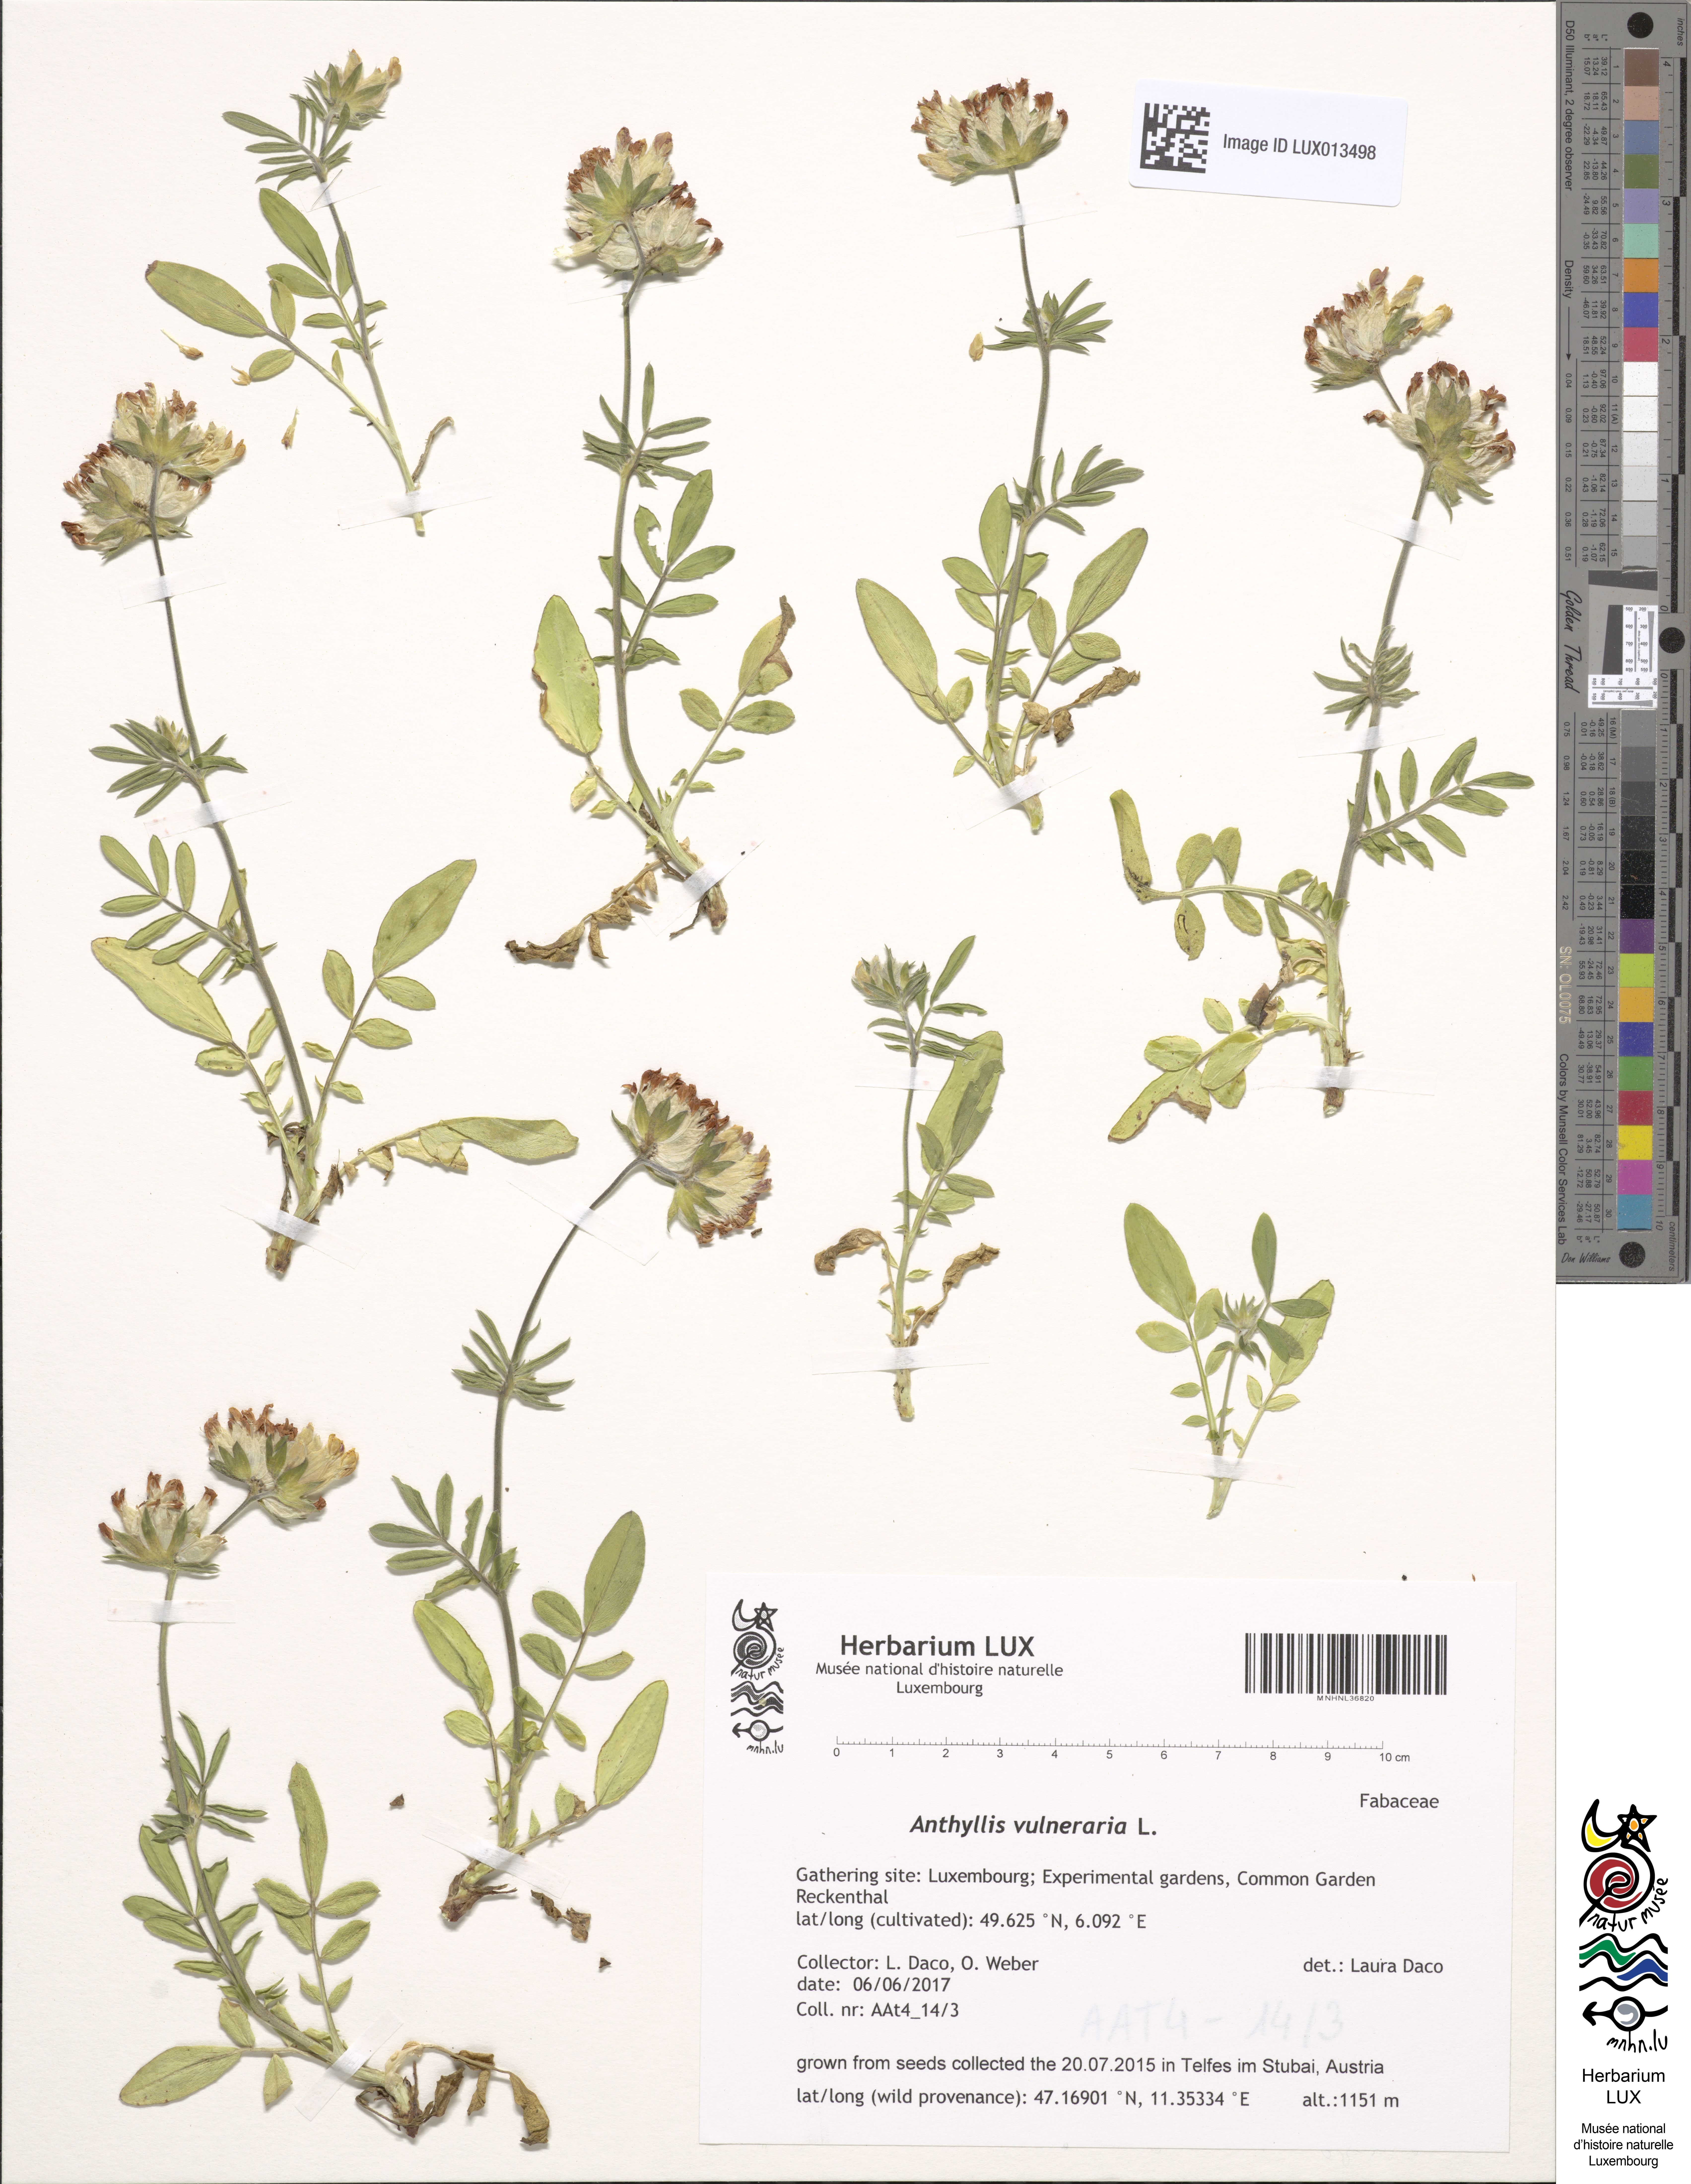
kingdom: Plantae
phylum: Tracheophyta
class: Magnoliopsida
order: Fabales
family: Fabaceae
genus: Anthyllis
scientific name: Anthyllis vulneraria
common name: Kidney vetch
